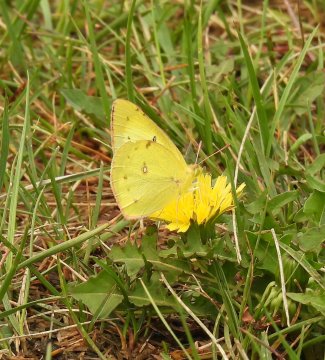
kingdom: Animalia
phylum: Arthropoda
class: Insecta
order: Lepidoptera
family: Pieridae
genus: Colias
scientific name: Colias philodice
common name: Clouded Sulphur
